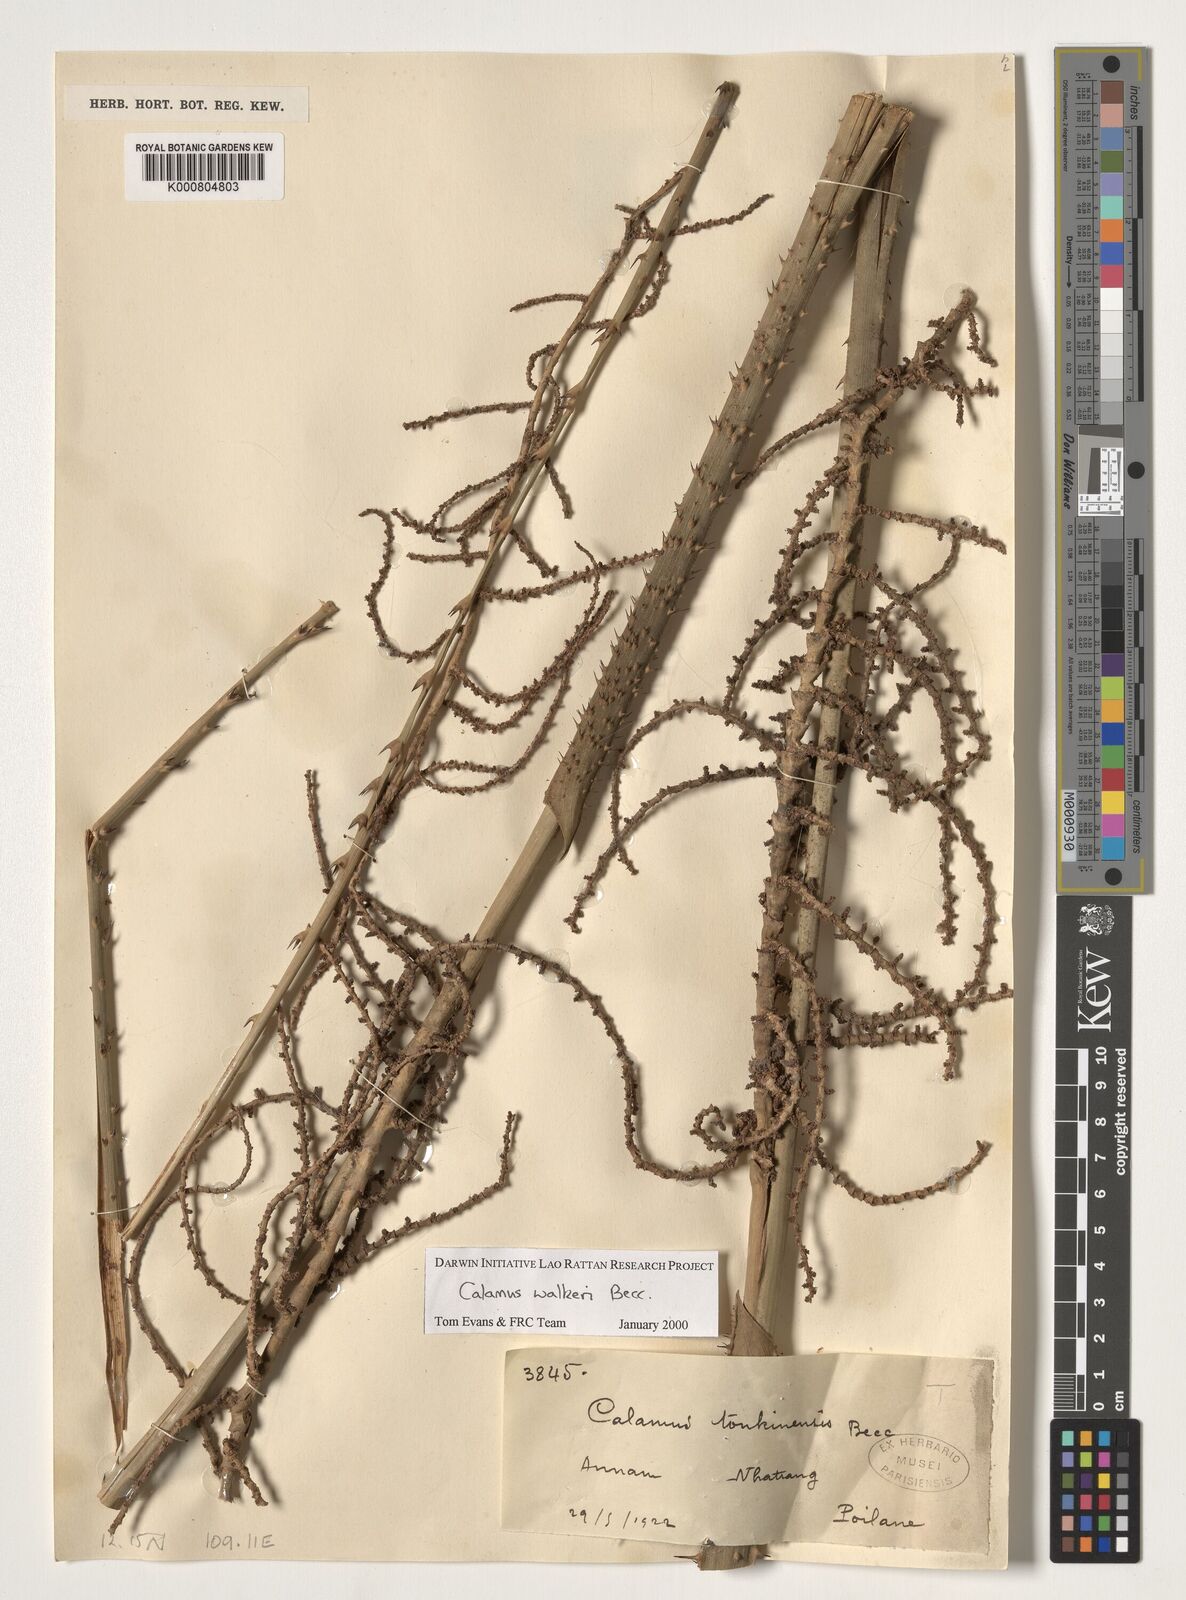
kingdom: Plantae
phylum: Tracheophyta
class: Liliopsida
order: Arecales
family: Arecaceae
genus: Calamus
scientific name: Calamus walkeri
